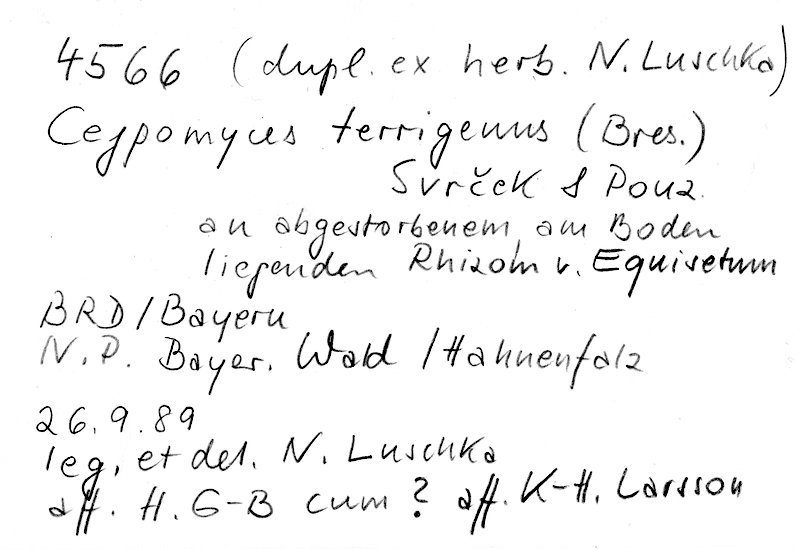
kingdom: Fungi
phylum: Basidiomycota
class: Agaricomycetes
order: Cantharellales
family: Ceratobasidiaceae
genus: Rhizoctonia
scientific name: Rhizoctonia terrigena
